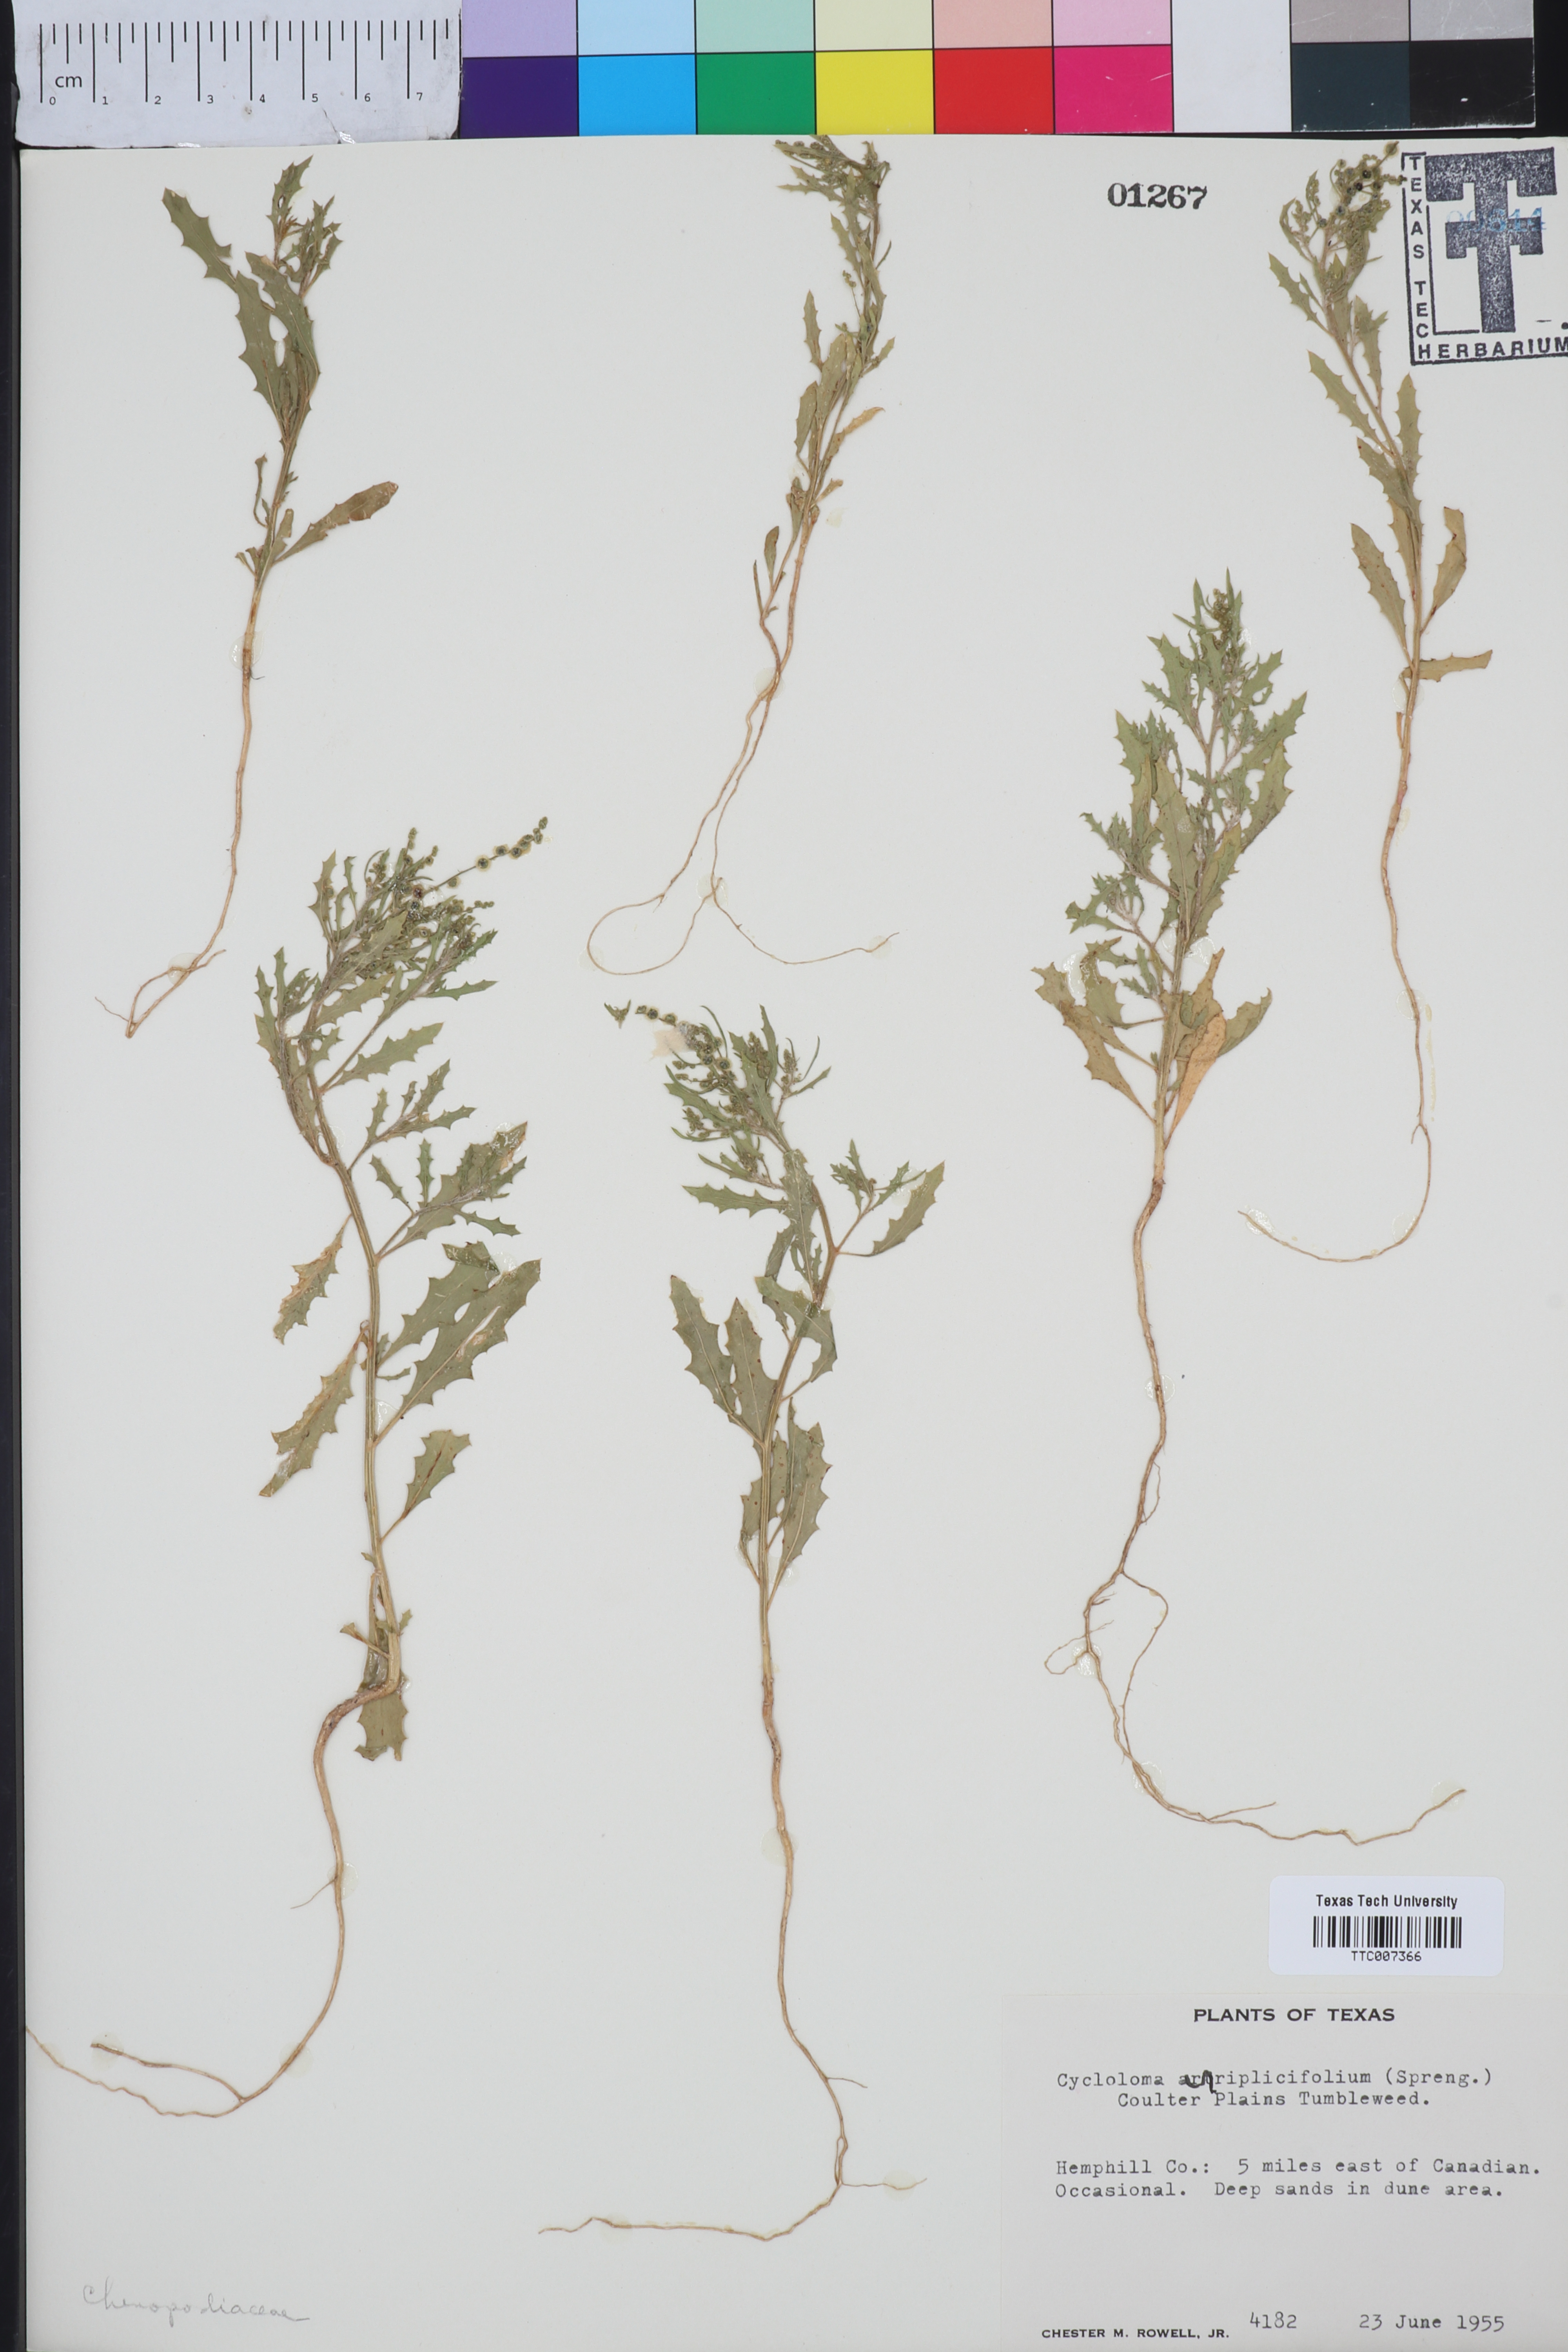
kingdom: Plantae
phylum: Tracheophyta
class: Magnoliopsida
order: Caryophyllales
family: Amaranthaceae
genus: Dysphania
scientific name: Dysphania atriplicifolia
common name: Plains tumbleweed
